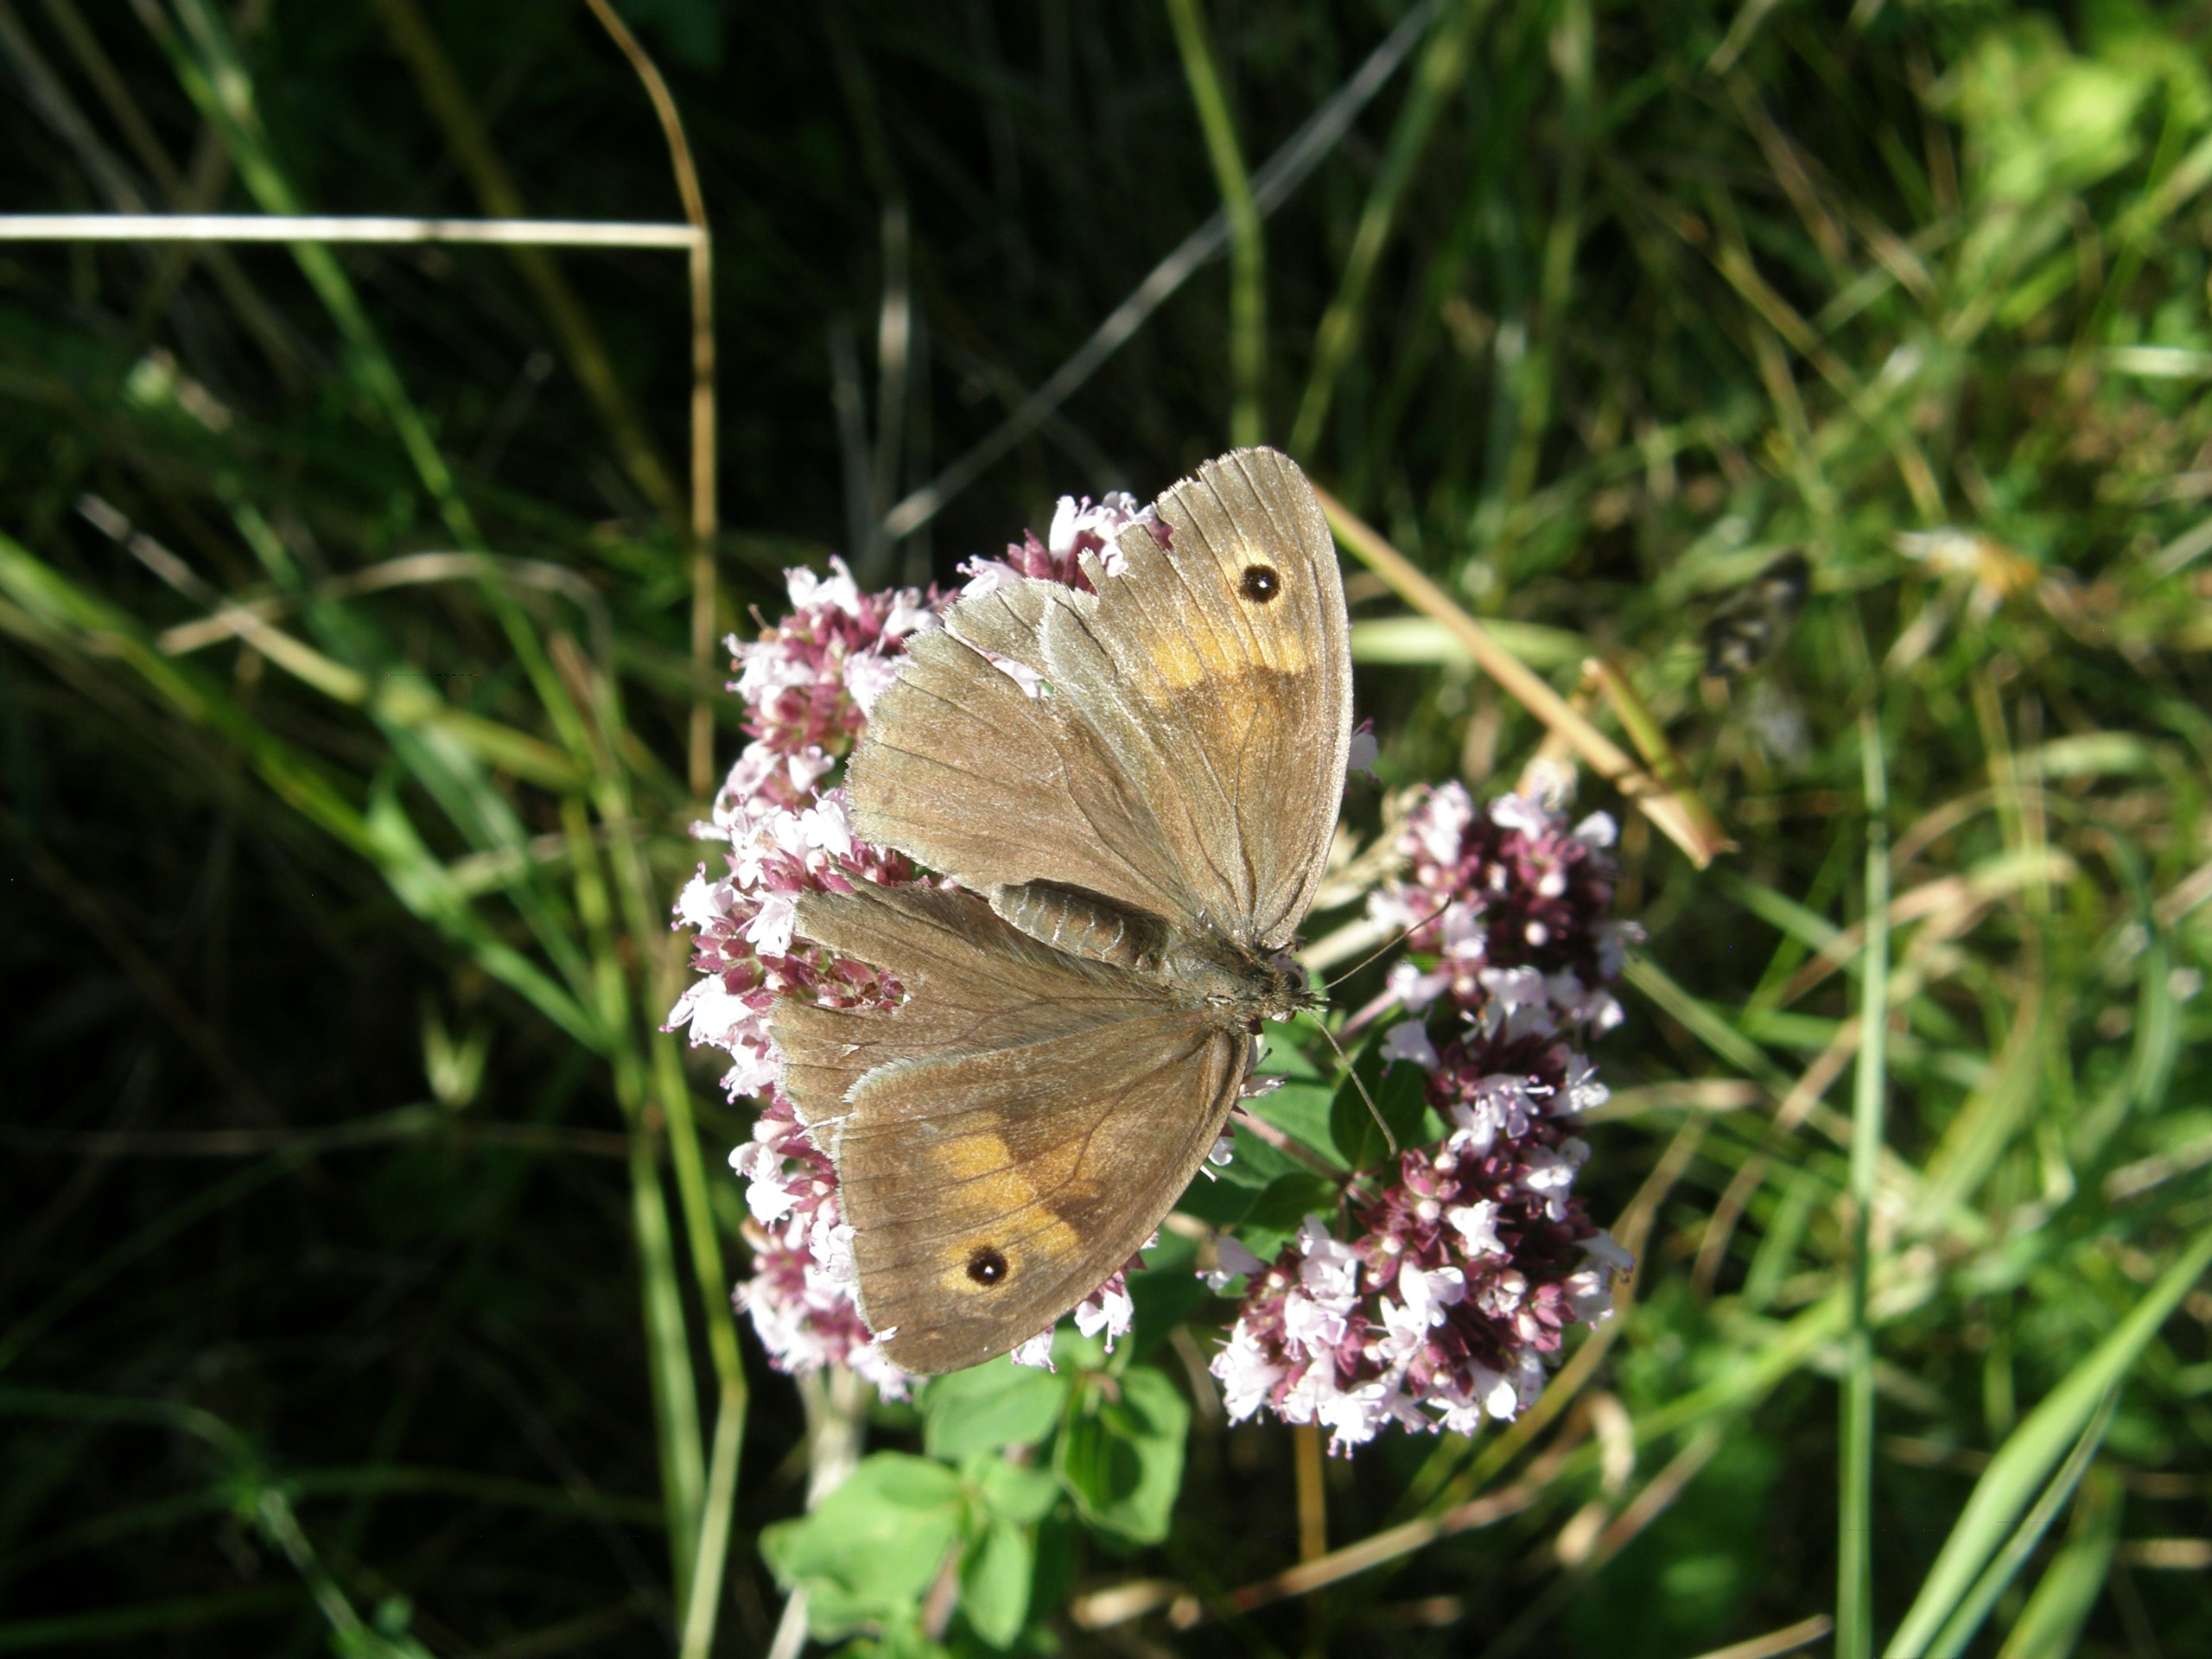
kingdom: Animalia
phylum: Arthropoda
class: Insecta
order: Lepidoptera
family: Nymphalidae
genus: Maniola
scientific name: Maniola jurtina
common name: Græsrandøje
